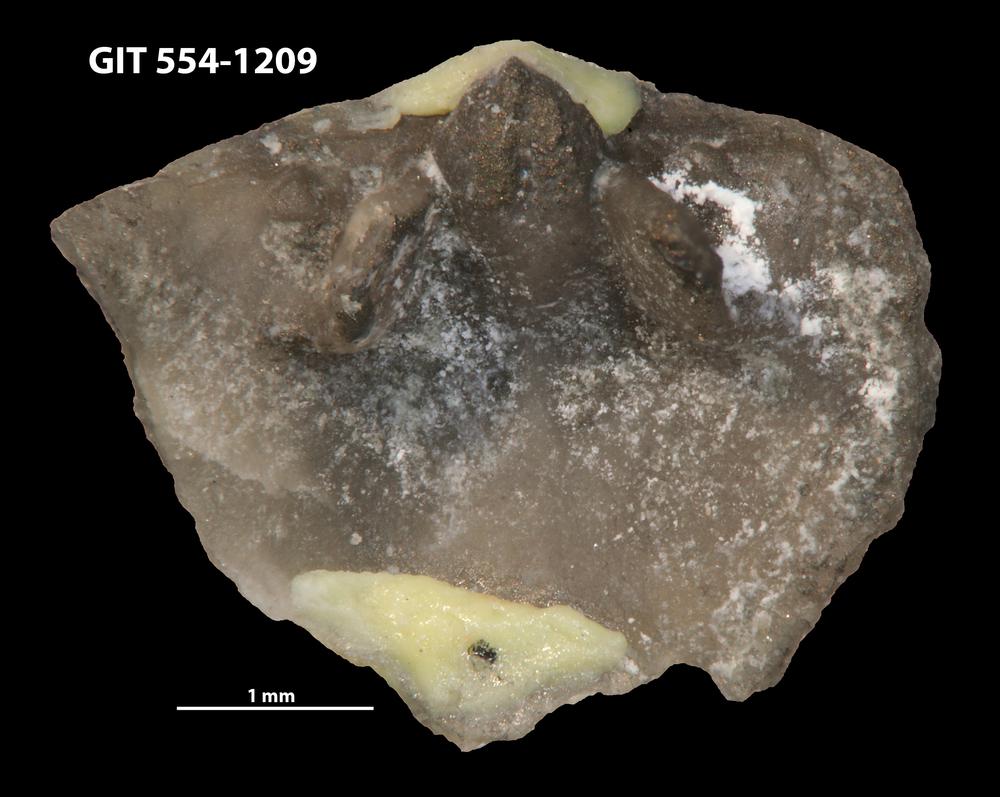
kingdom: Animalia
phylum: Brachiopoda
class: Rhynchonellata
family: Rhipidomellidae
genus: Mendacella
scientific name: Mendacella Orthis hybrida
